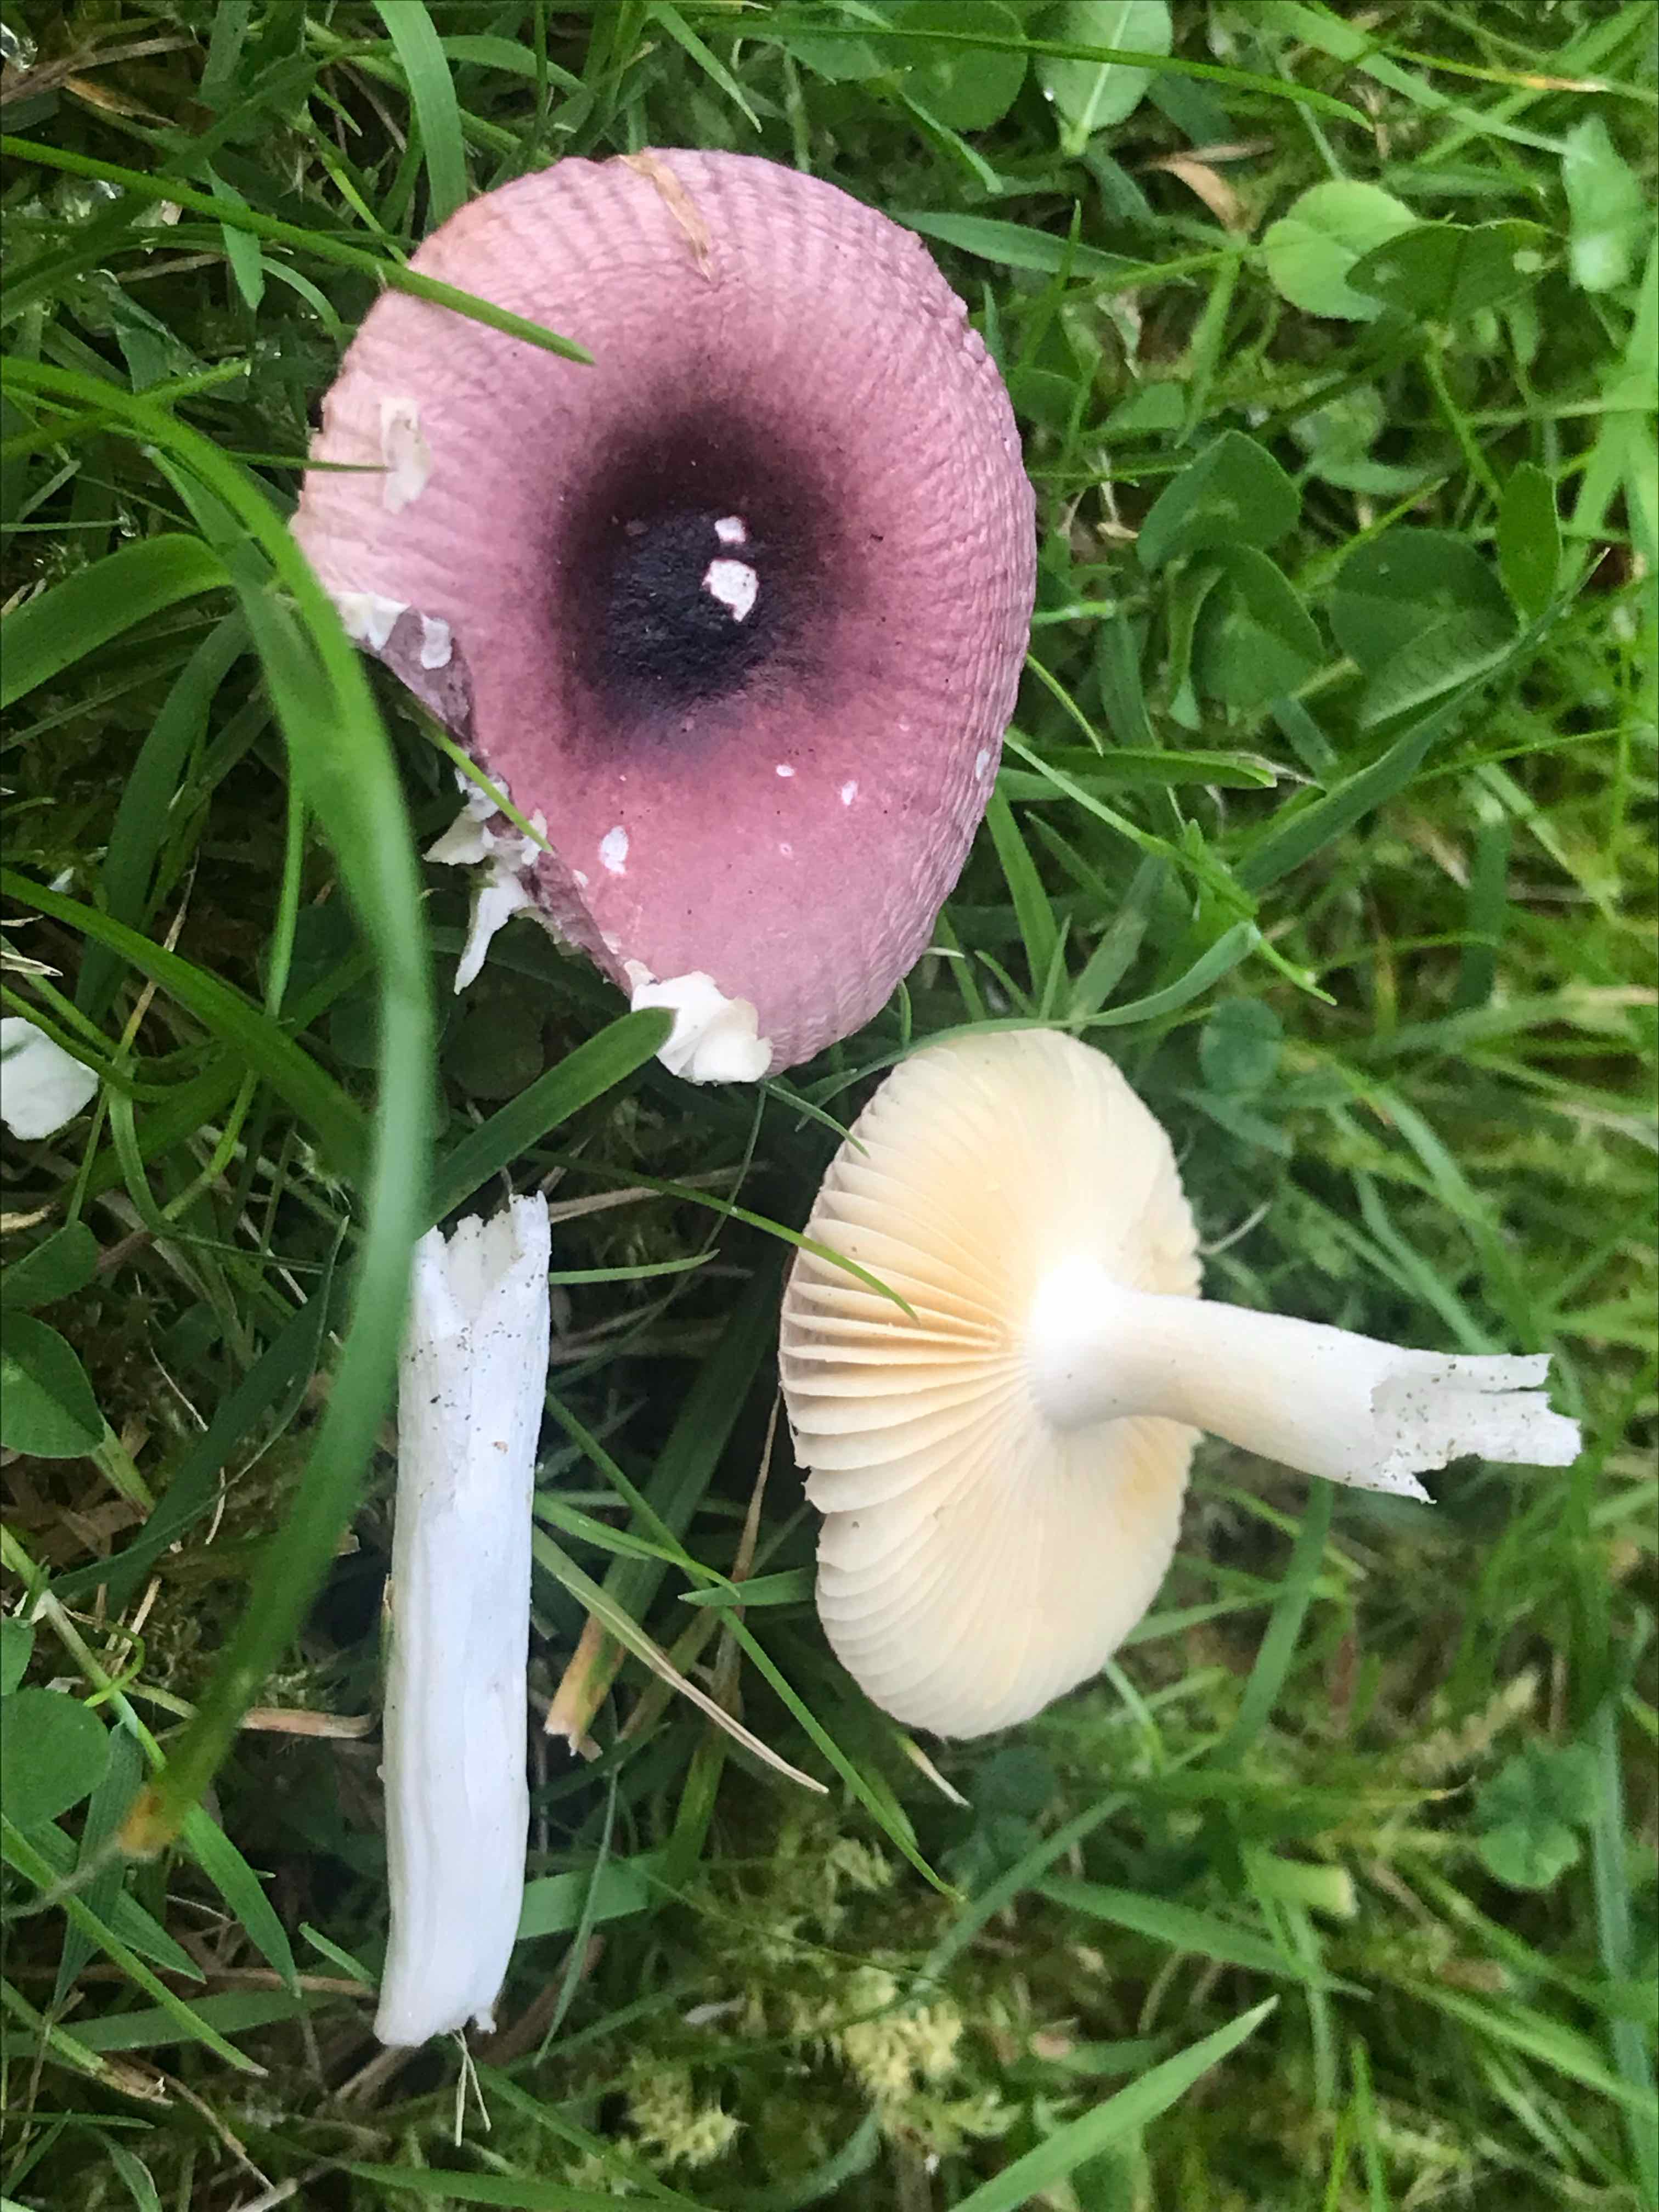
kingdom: Fungi
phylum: Basidiomycota
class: Agaricomycetes
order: Russulales
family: Russulaceae
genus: Russula
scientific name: Russula nauseosa
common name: spinkel skørhat
